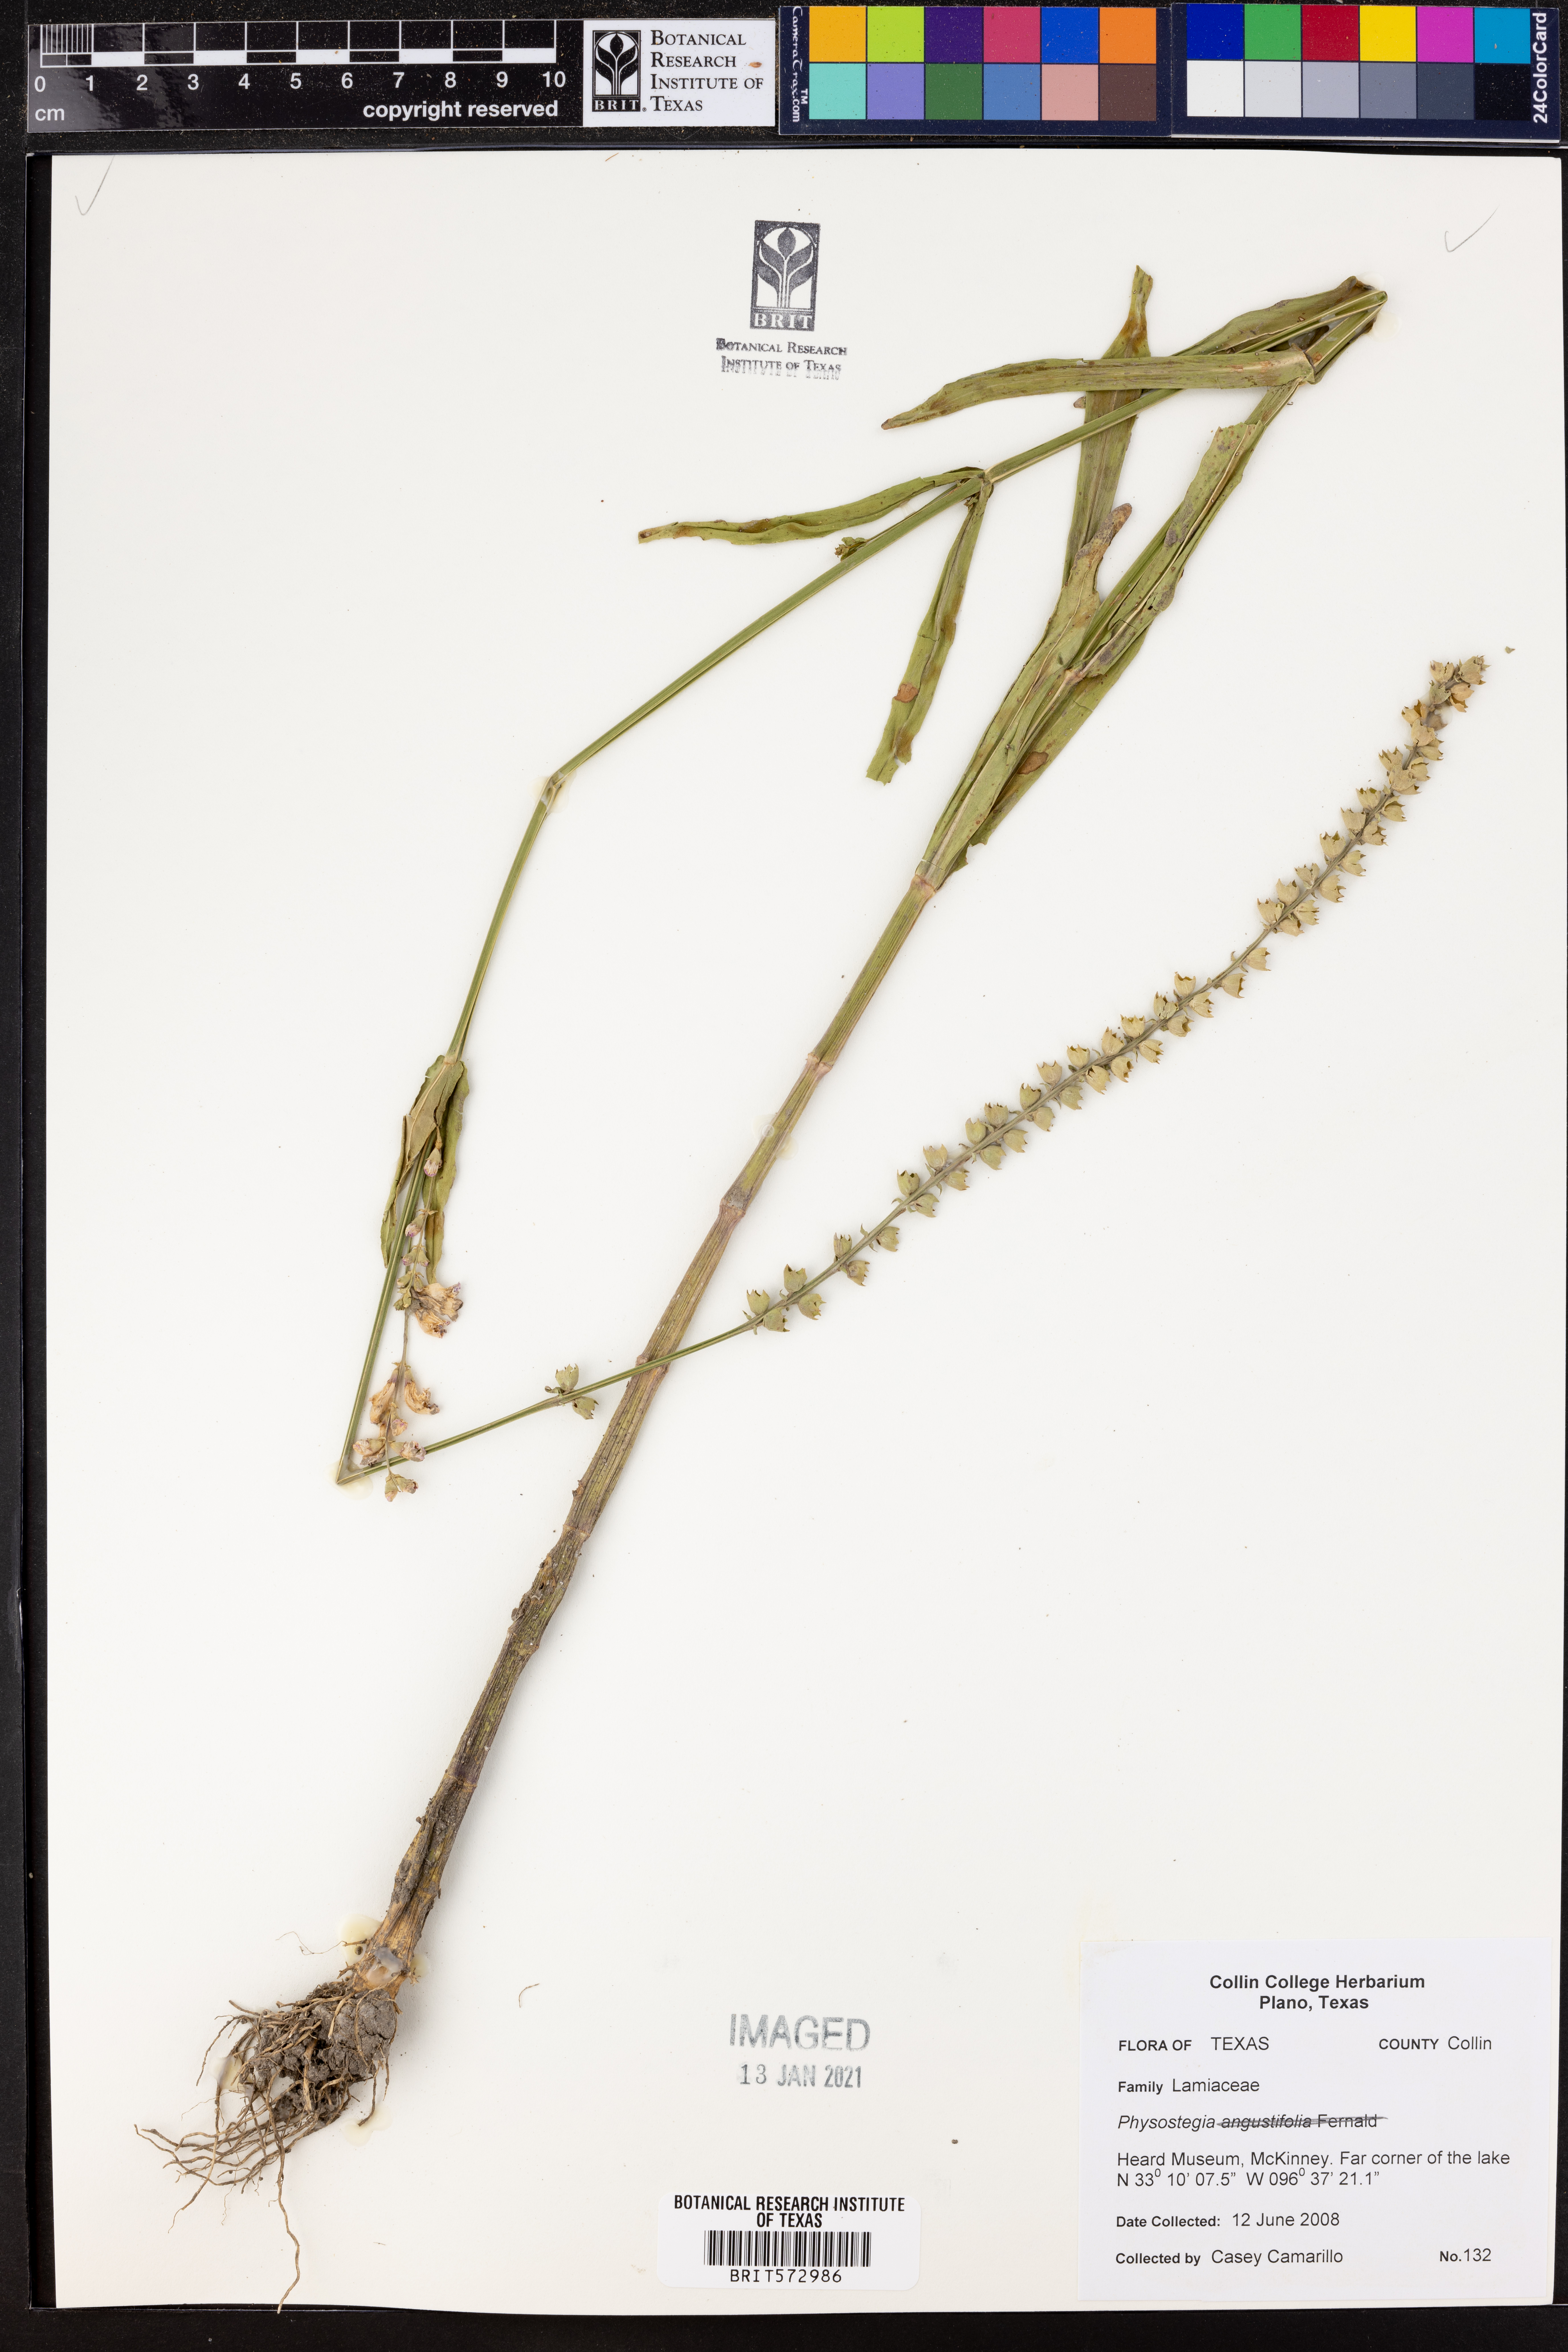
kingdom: Plantae
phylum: Tracheophyta
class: Magnoliopsida
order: Lamiales
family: Lamiaceae
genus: Physostegia
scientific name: Physostegia
